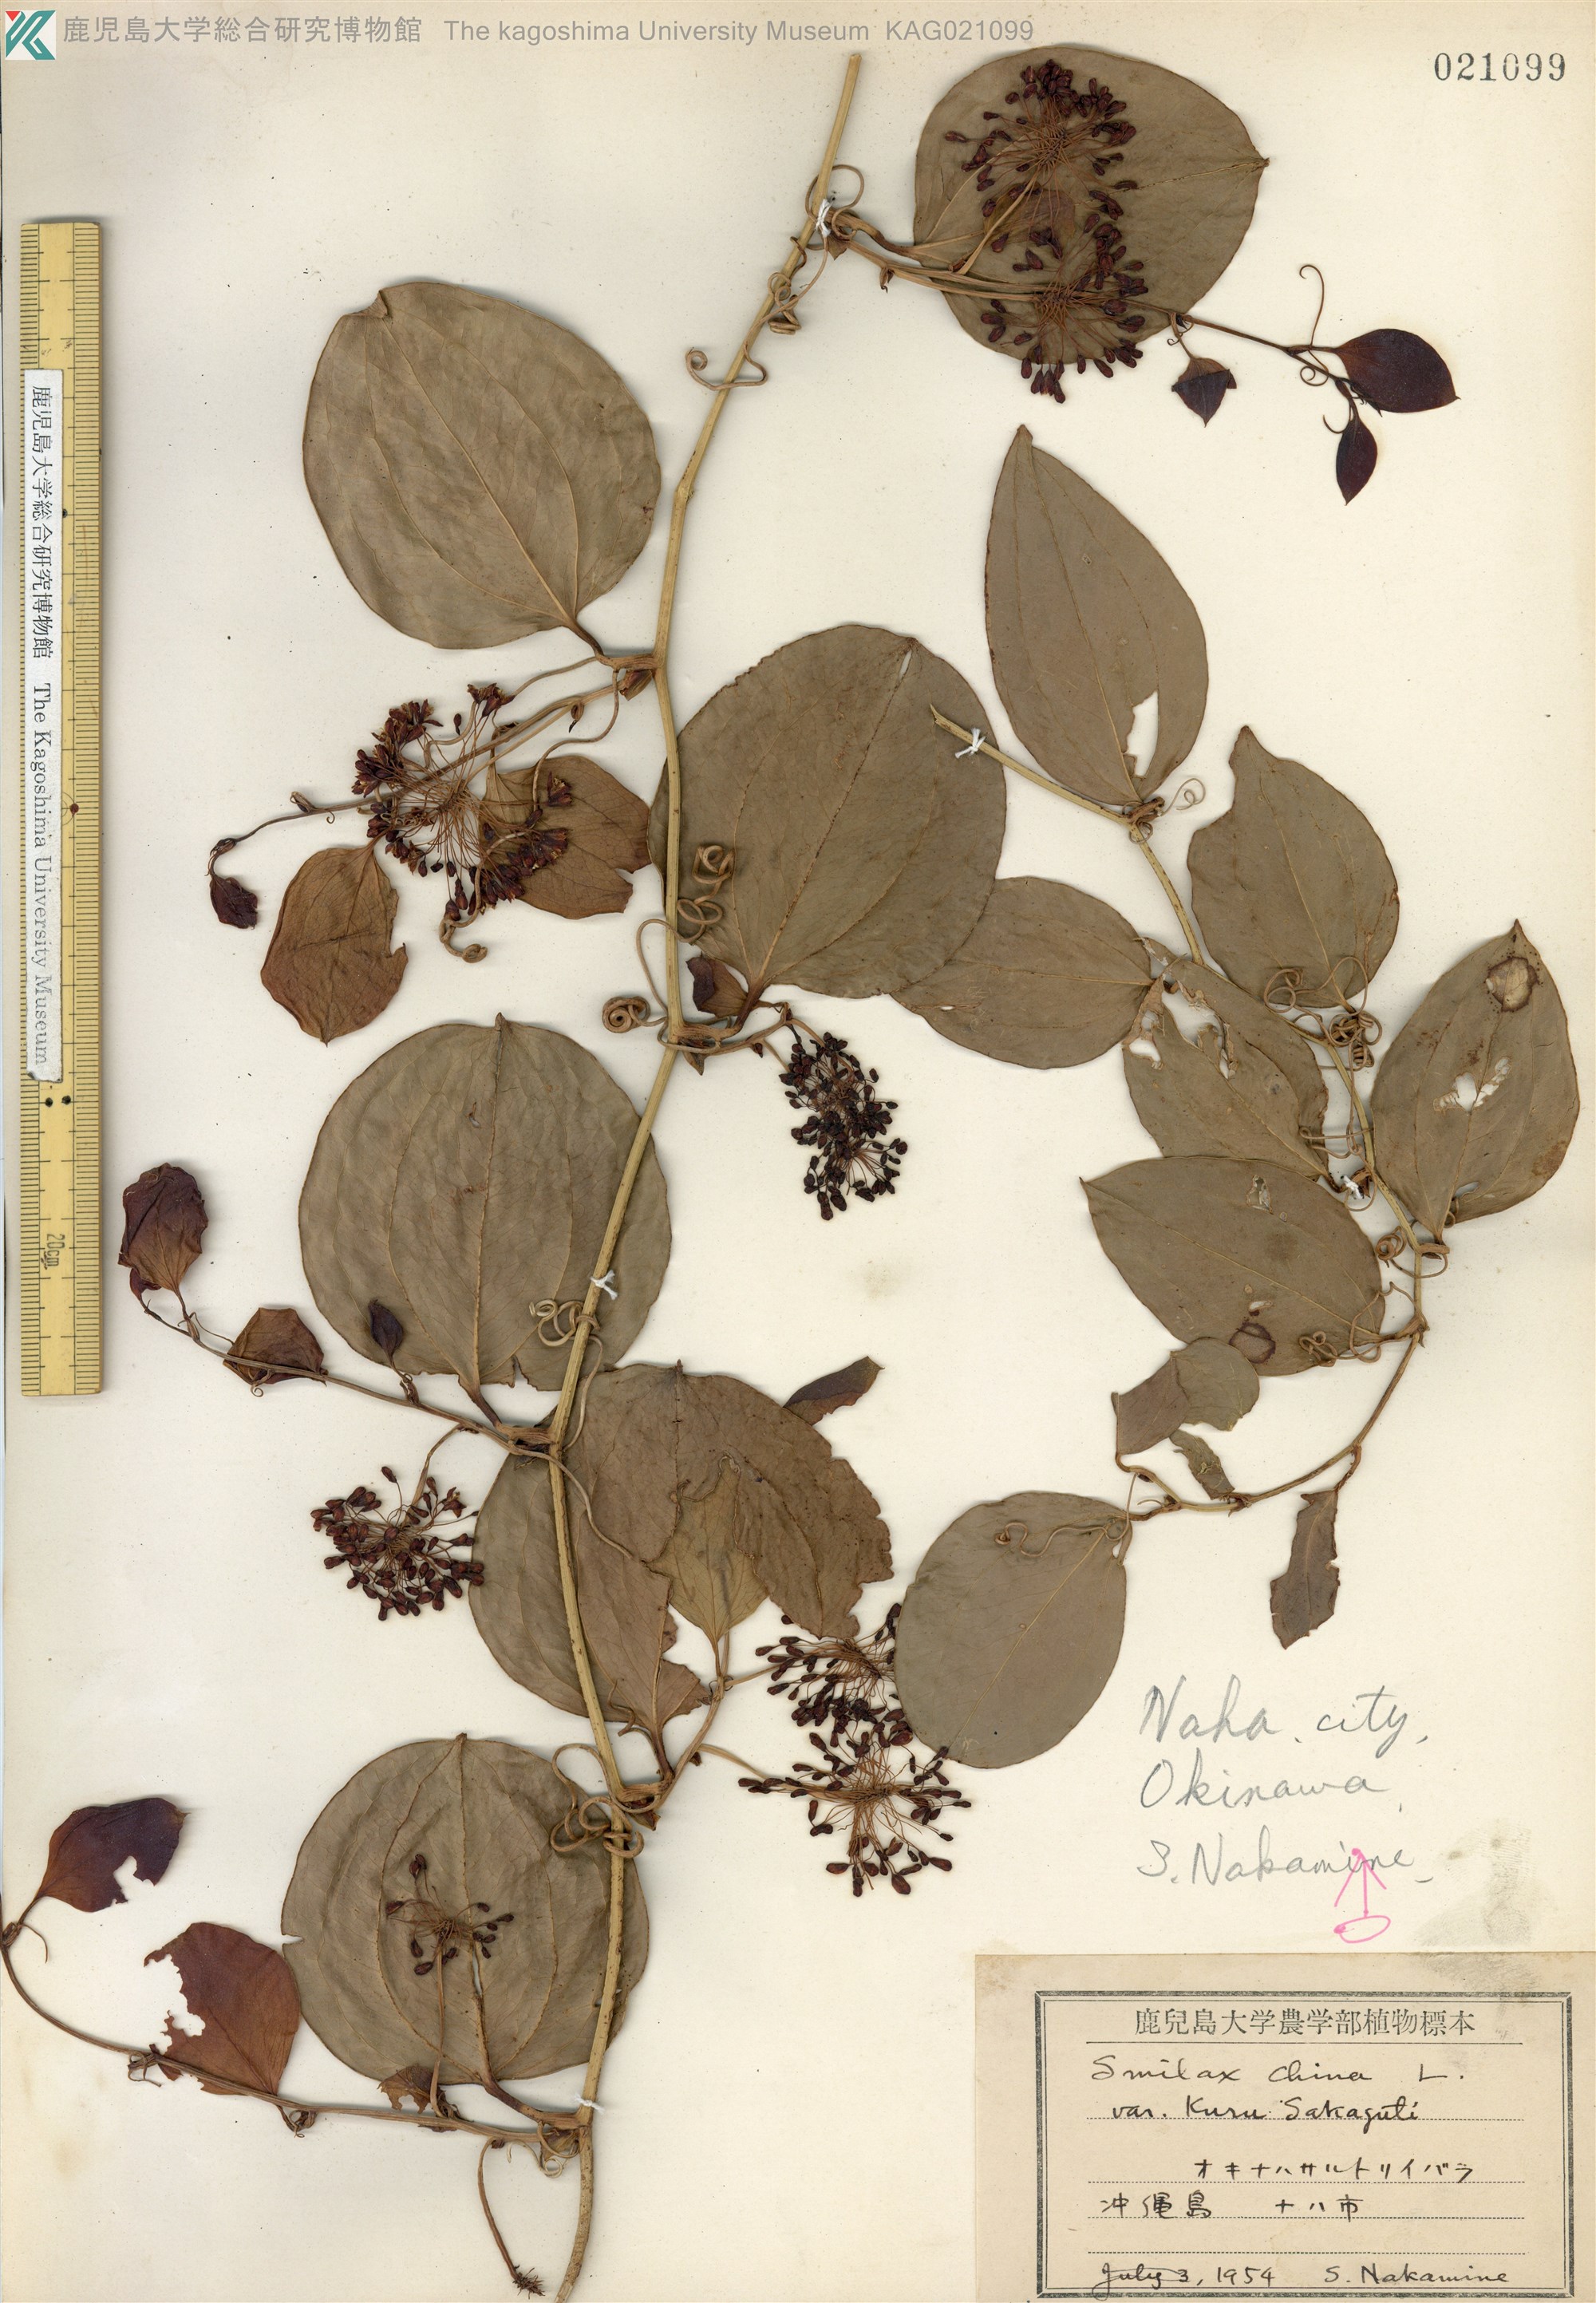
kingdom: Plantae
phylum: Tracheophyta
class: Liliopsida
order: Liliales
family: Smilacaceae
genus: Smilax
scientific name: Smilax china
